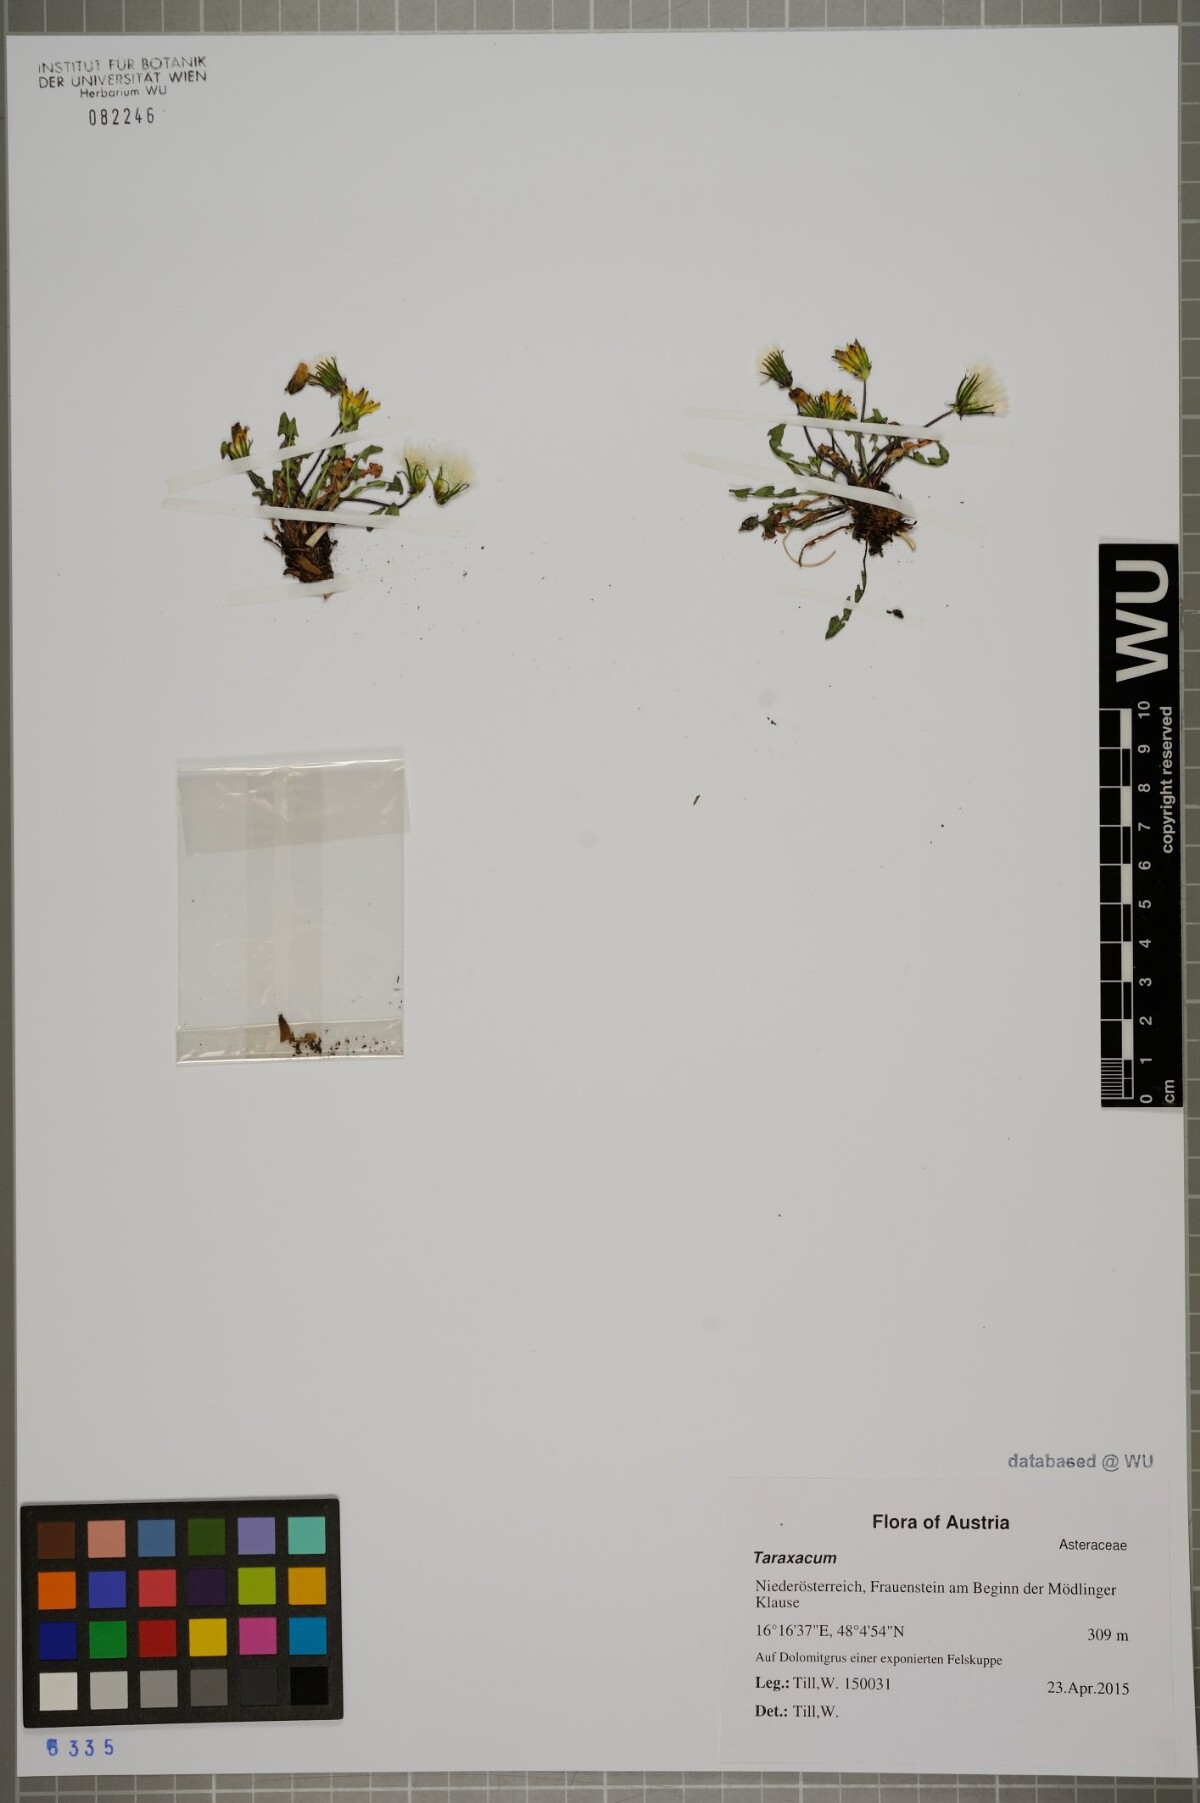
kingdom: Plantae
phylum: Tracheophyta
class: Magnoliopsida
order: Asterales
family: Asteraceae
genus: Taraxacum
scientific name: Taraxacum
